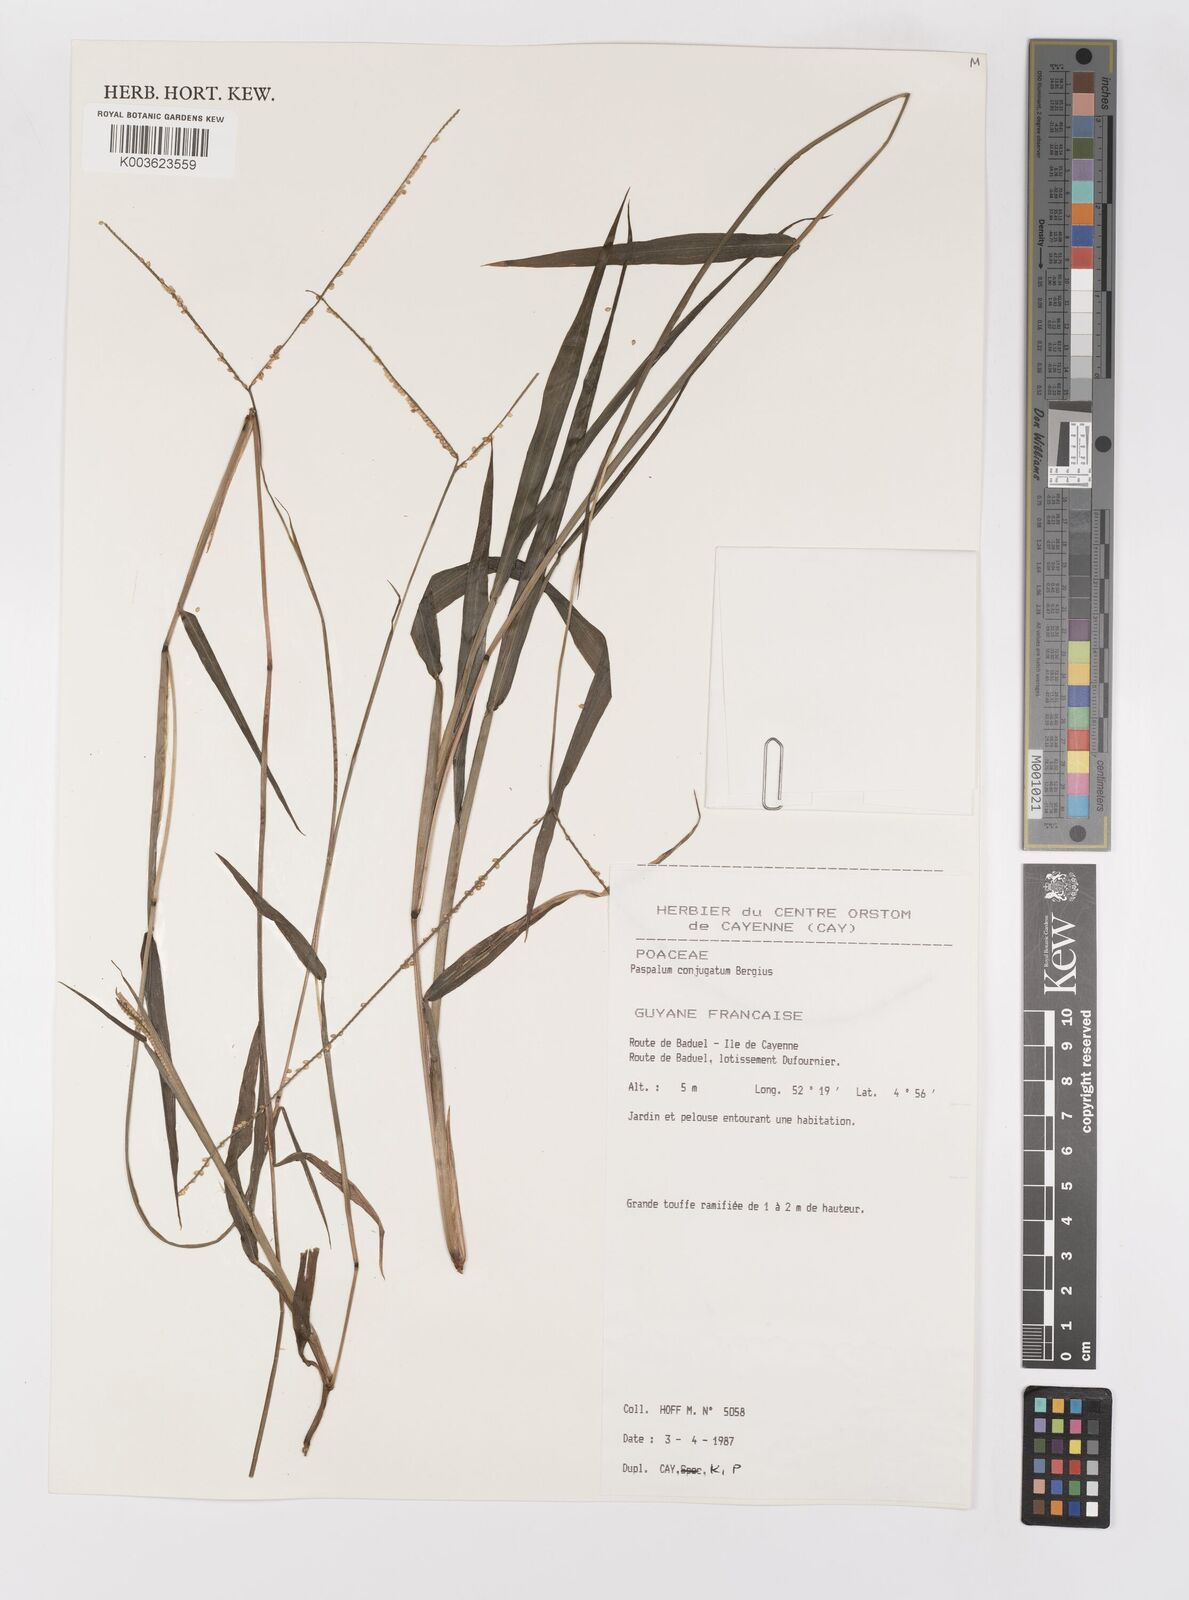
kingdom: Plantae
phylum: Tracheophyta
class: Liliopsida
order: Poales
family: Poaceae
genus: Paspalum
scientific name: Paspalum conjugatum
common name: Hilograss
